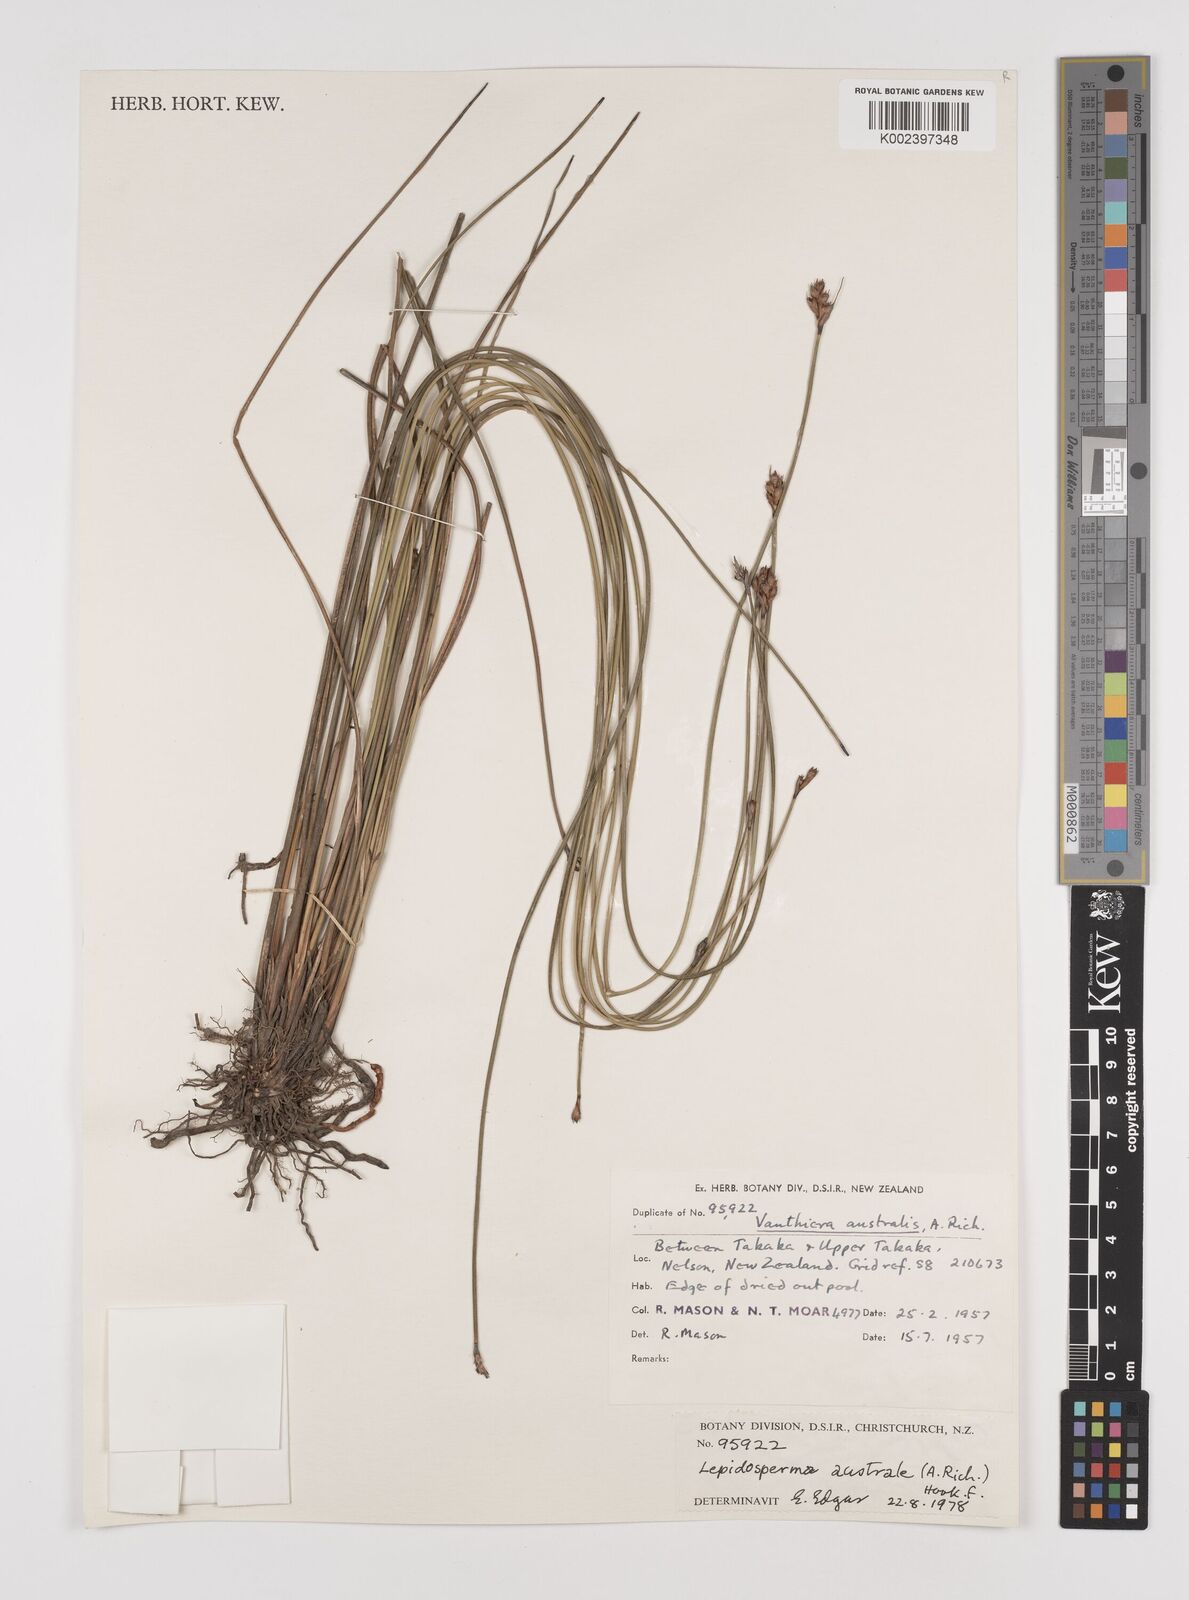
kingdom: Plantae
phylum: Tracheophyta
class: Liliopsida
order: Poales
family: Cyperaceae
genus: Lepidosperma
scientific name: Lepidosperma australe
